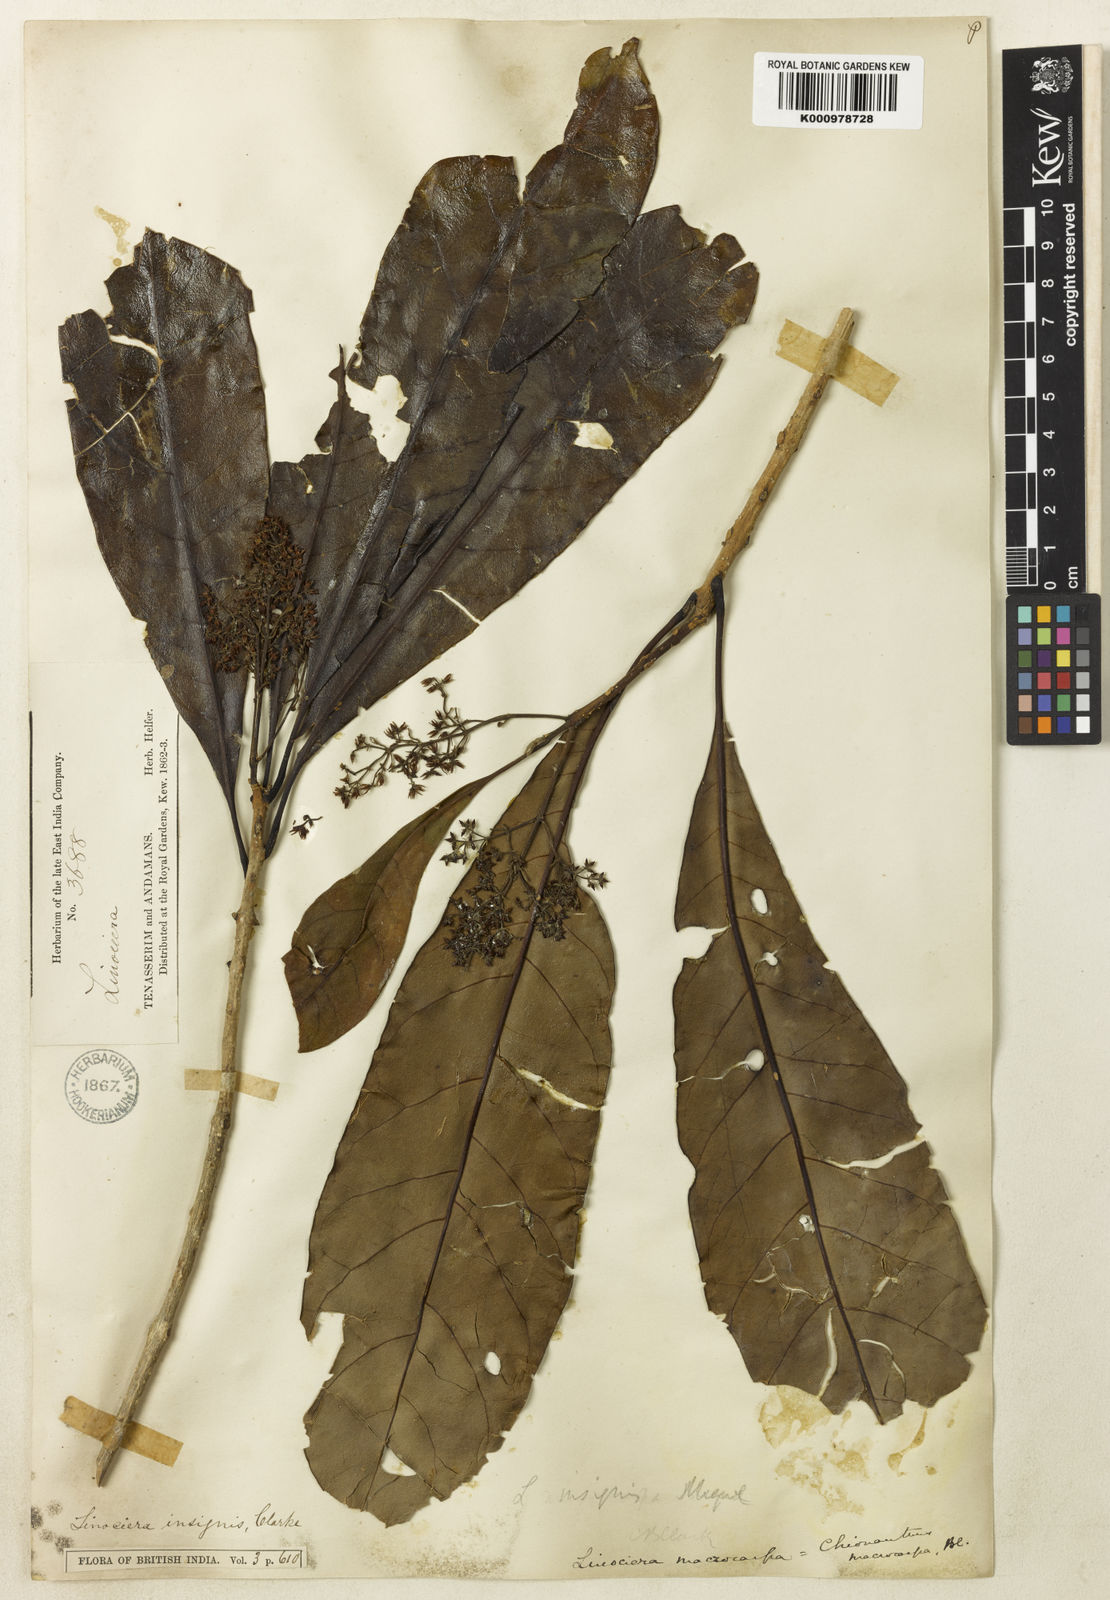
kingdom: Plantae
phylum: Tracheophyta
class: Magnoliopsida
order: Lamiales
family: Oleaceae
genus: Chionanthus
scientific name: Chionanthus macrocarpus
